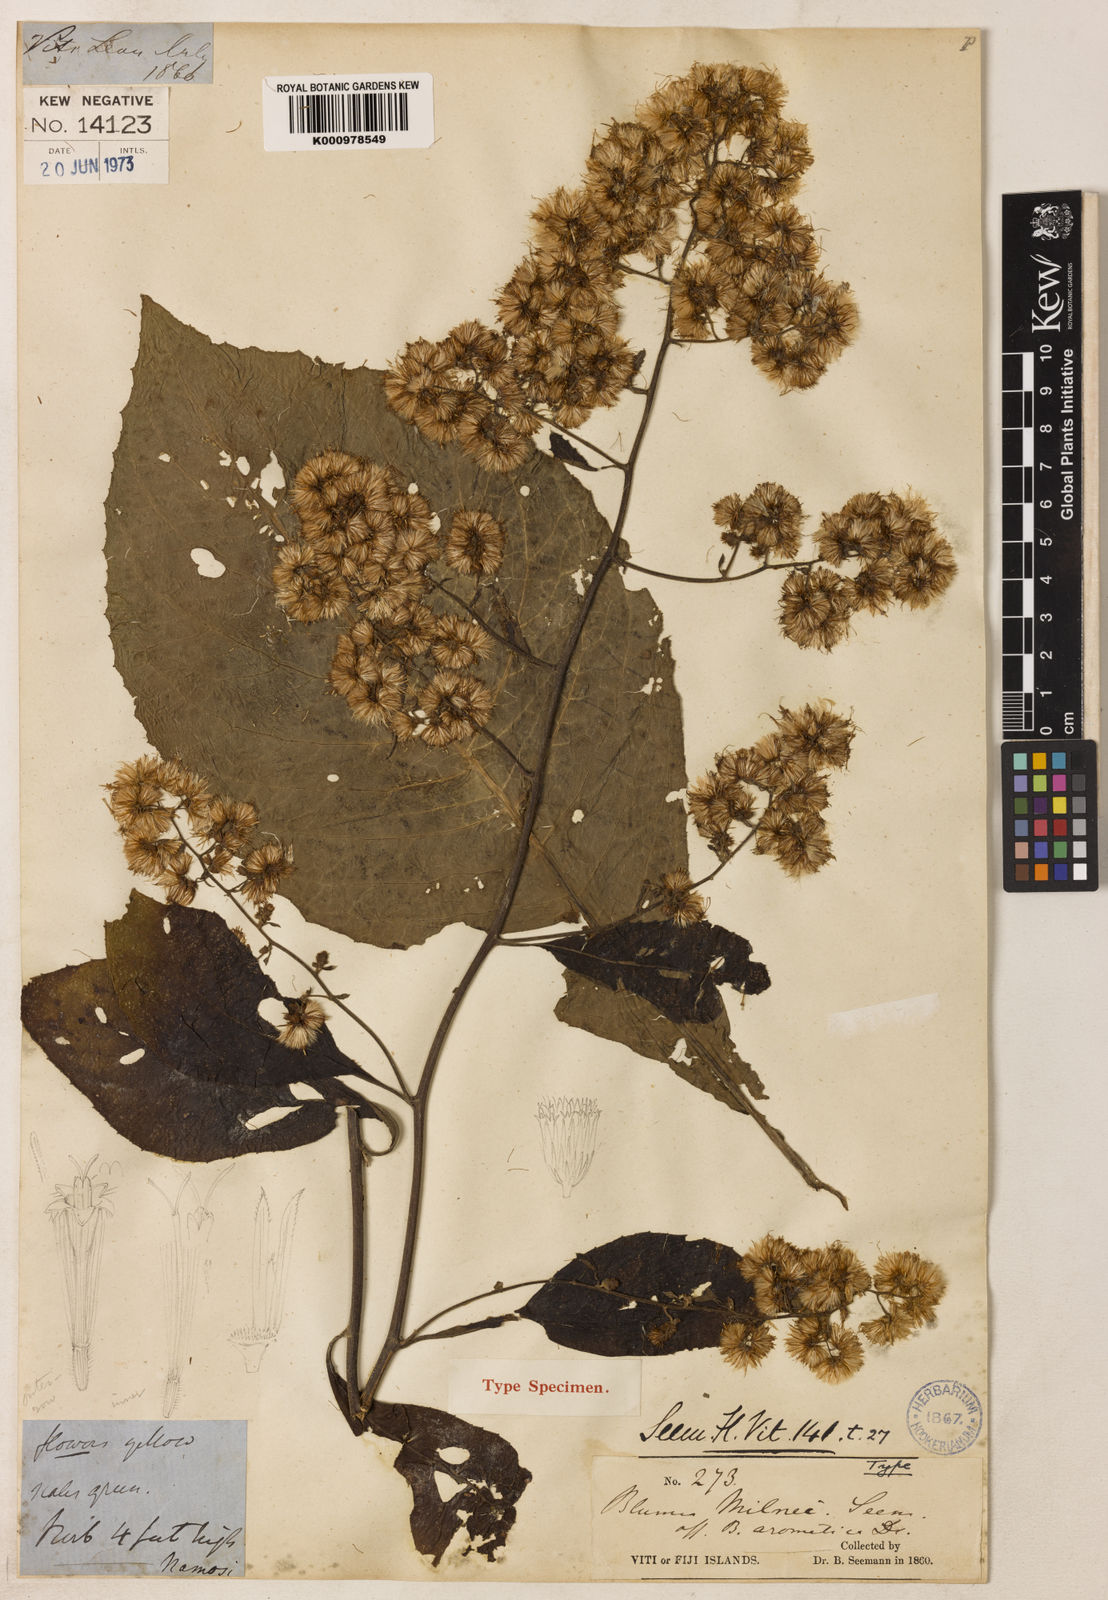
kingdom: Plantae
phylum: Tracheophyta
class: Magnoliopsida
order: Asterales
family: Asteraceae
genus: Blumea
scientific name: Blumea milnei
